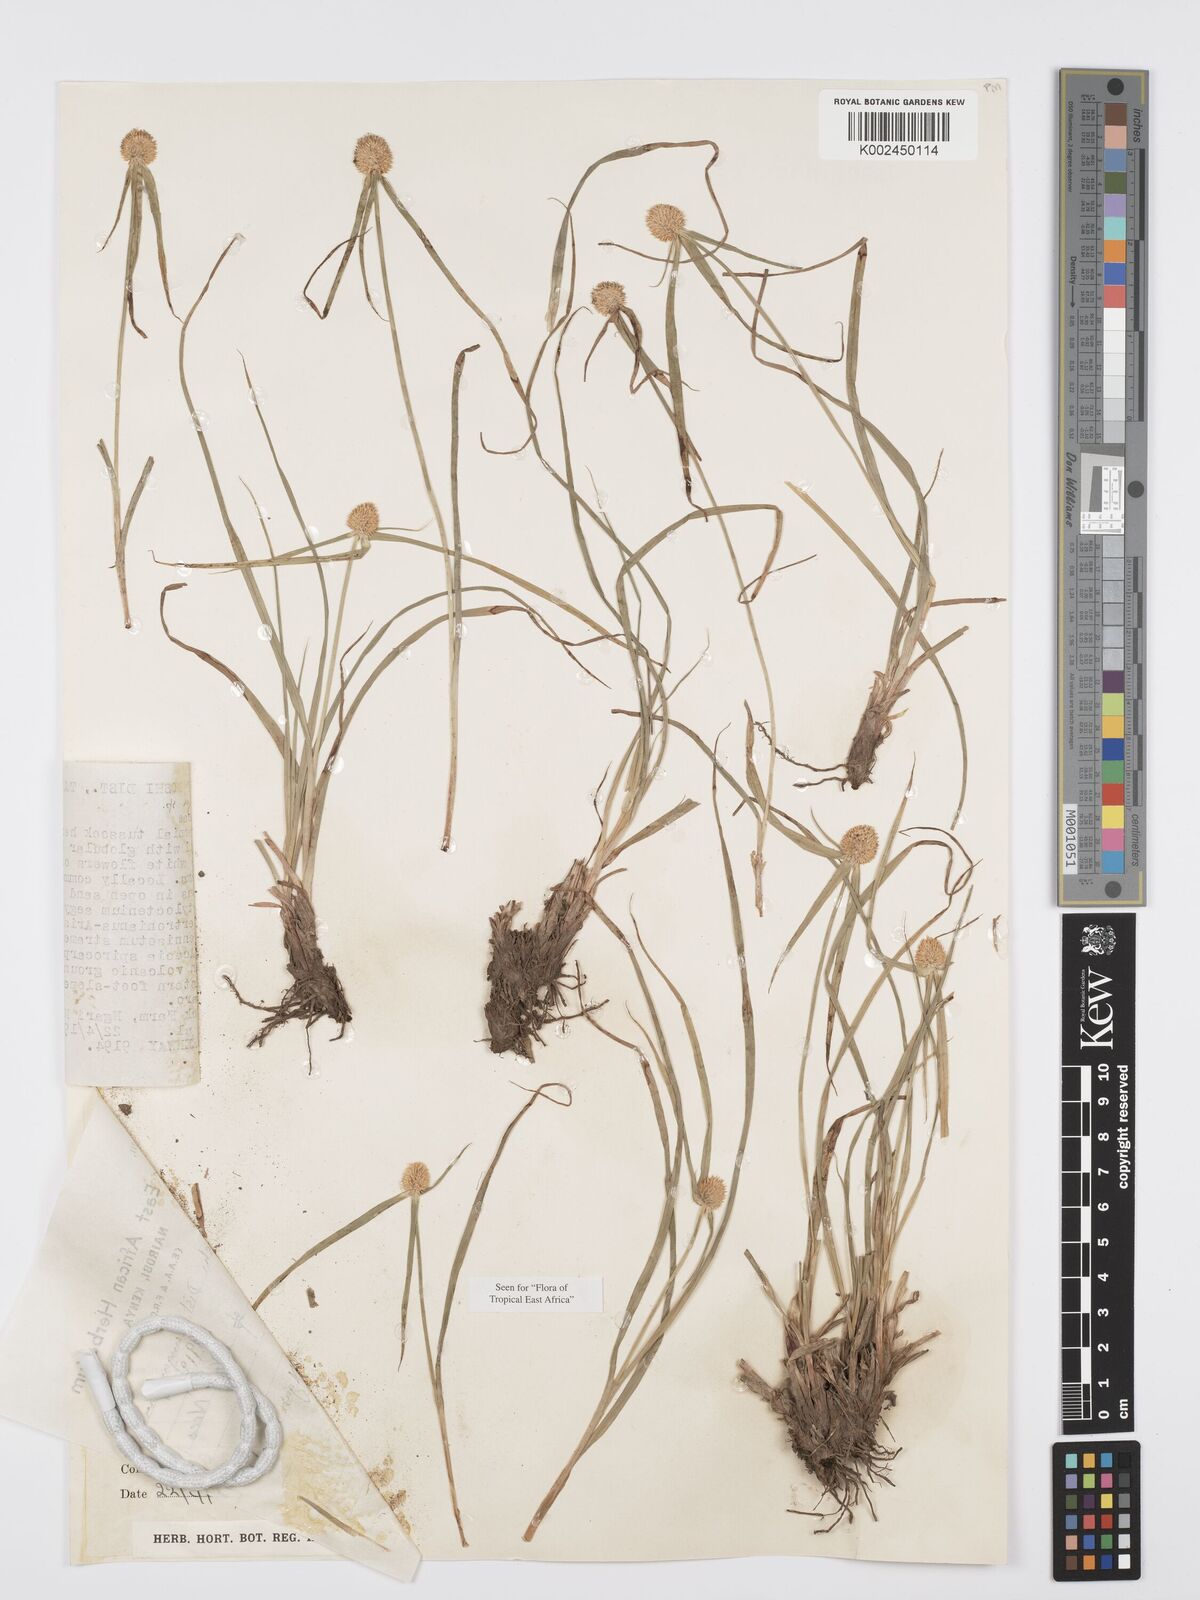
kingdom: Plantae
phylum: Tracheophyta
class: Liliopsida
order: Poales
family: Cyperaceae
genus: Cyperus
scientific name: Cyperus
